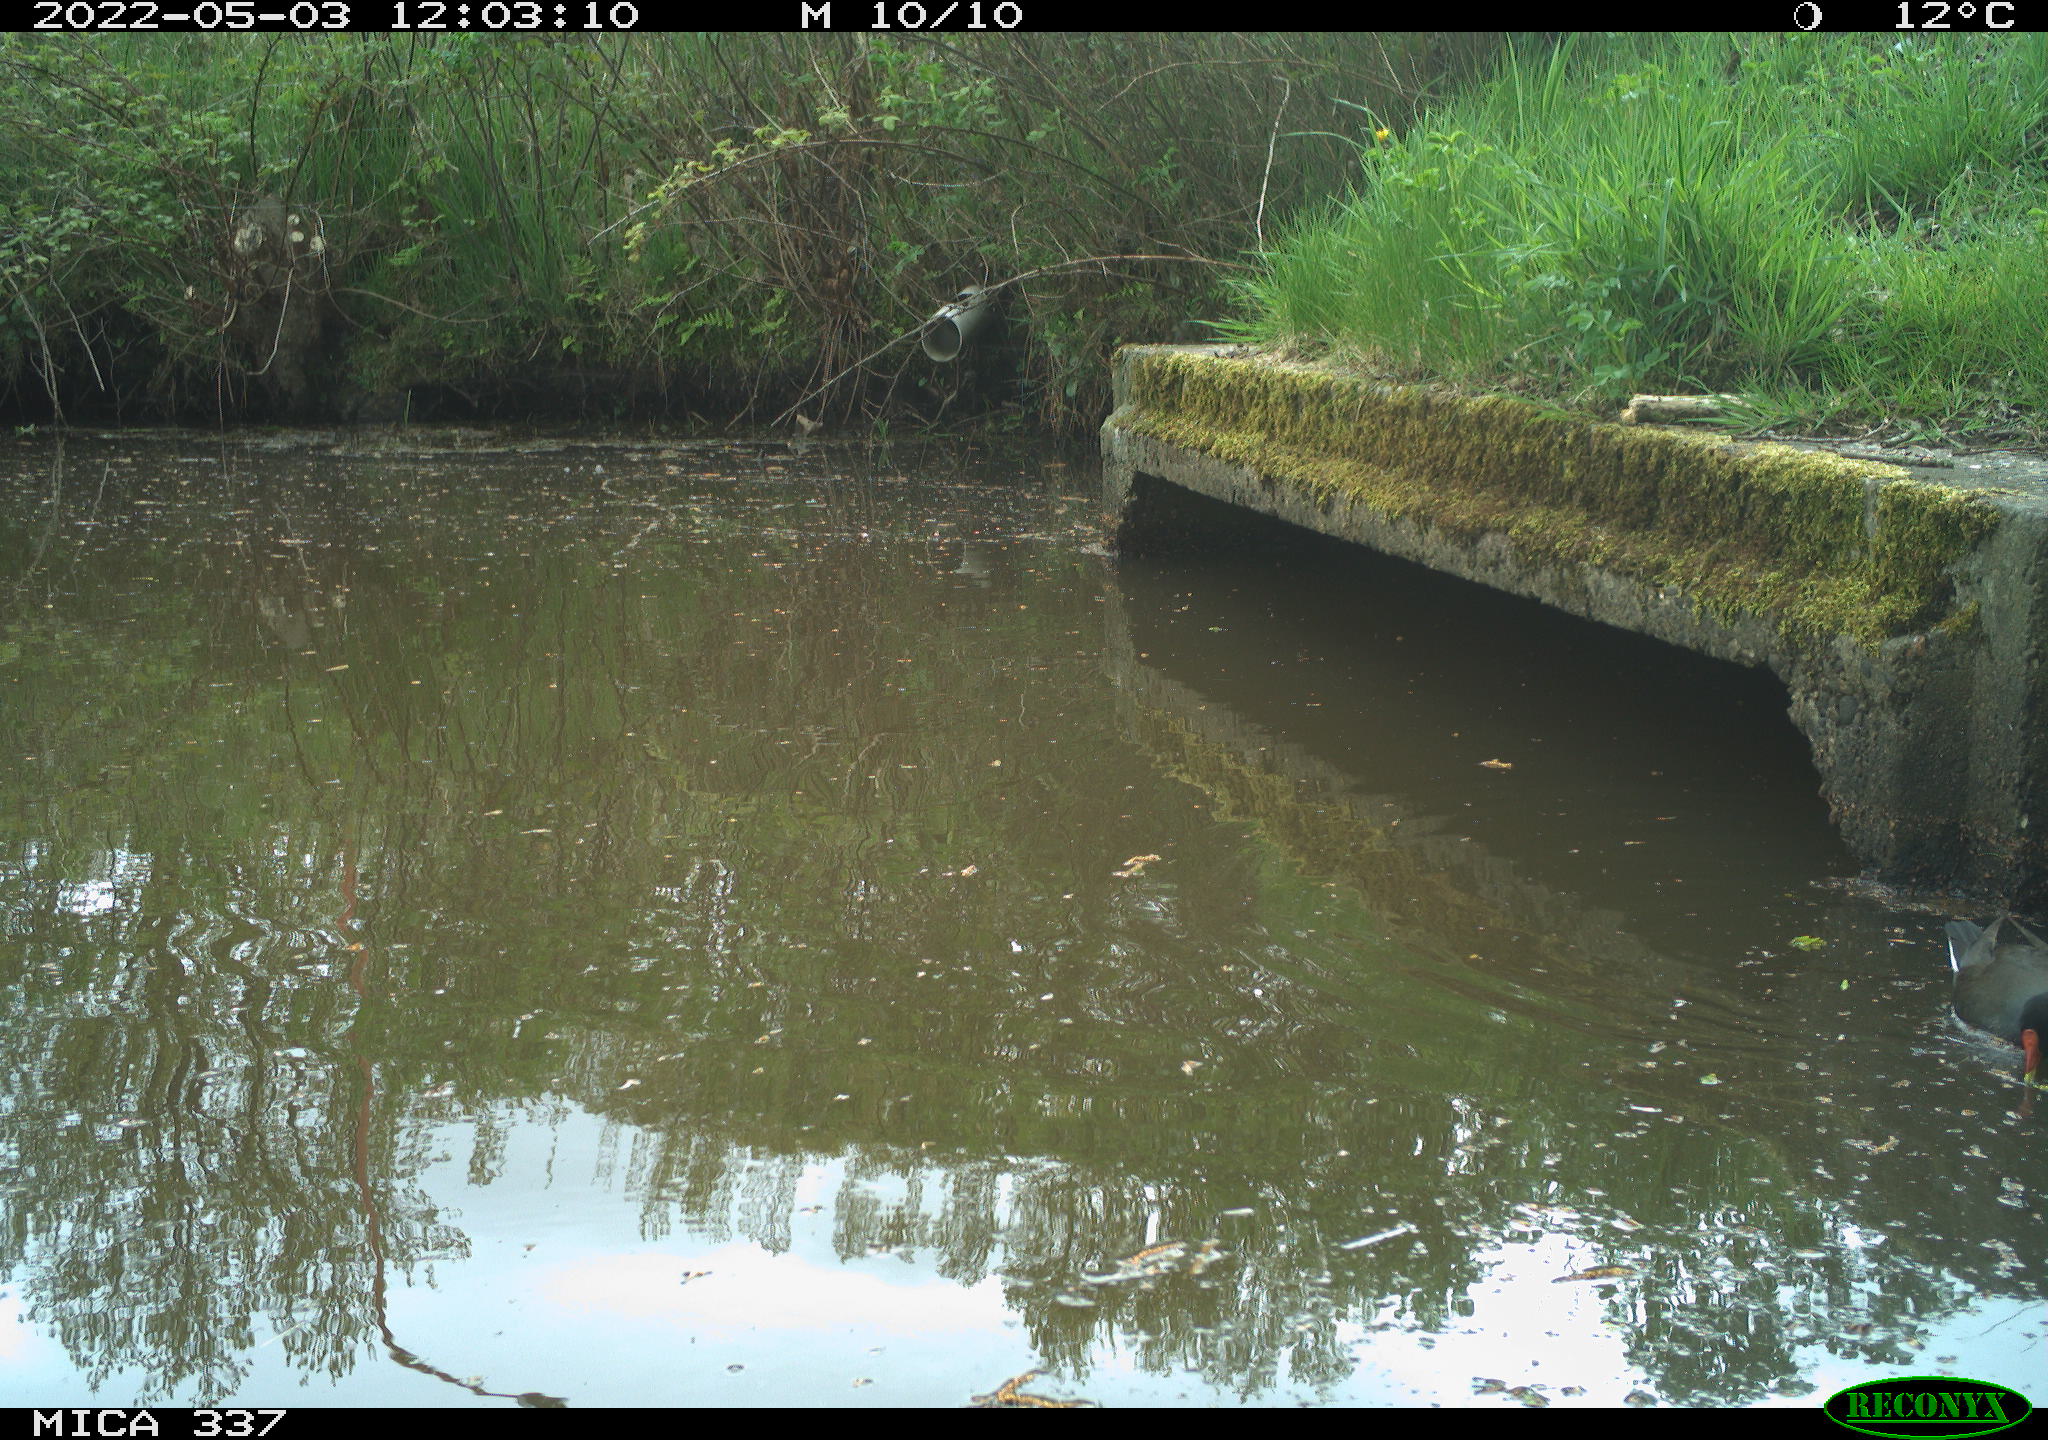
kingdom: Animalia
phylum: Chordata
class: Aves
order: Gruiformes
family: Rallidae
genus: Gallinula
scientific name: Gallinula chloropus
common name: Common moorhen
